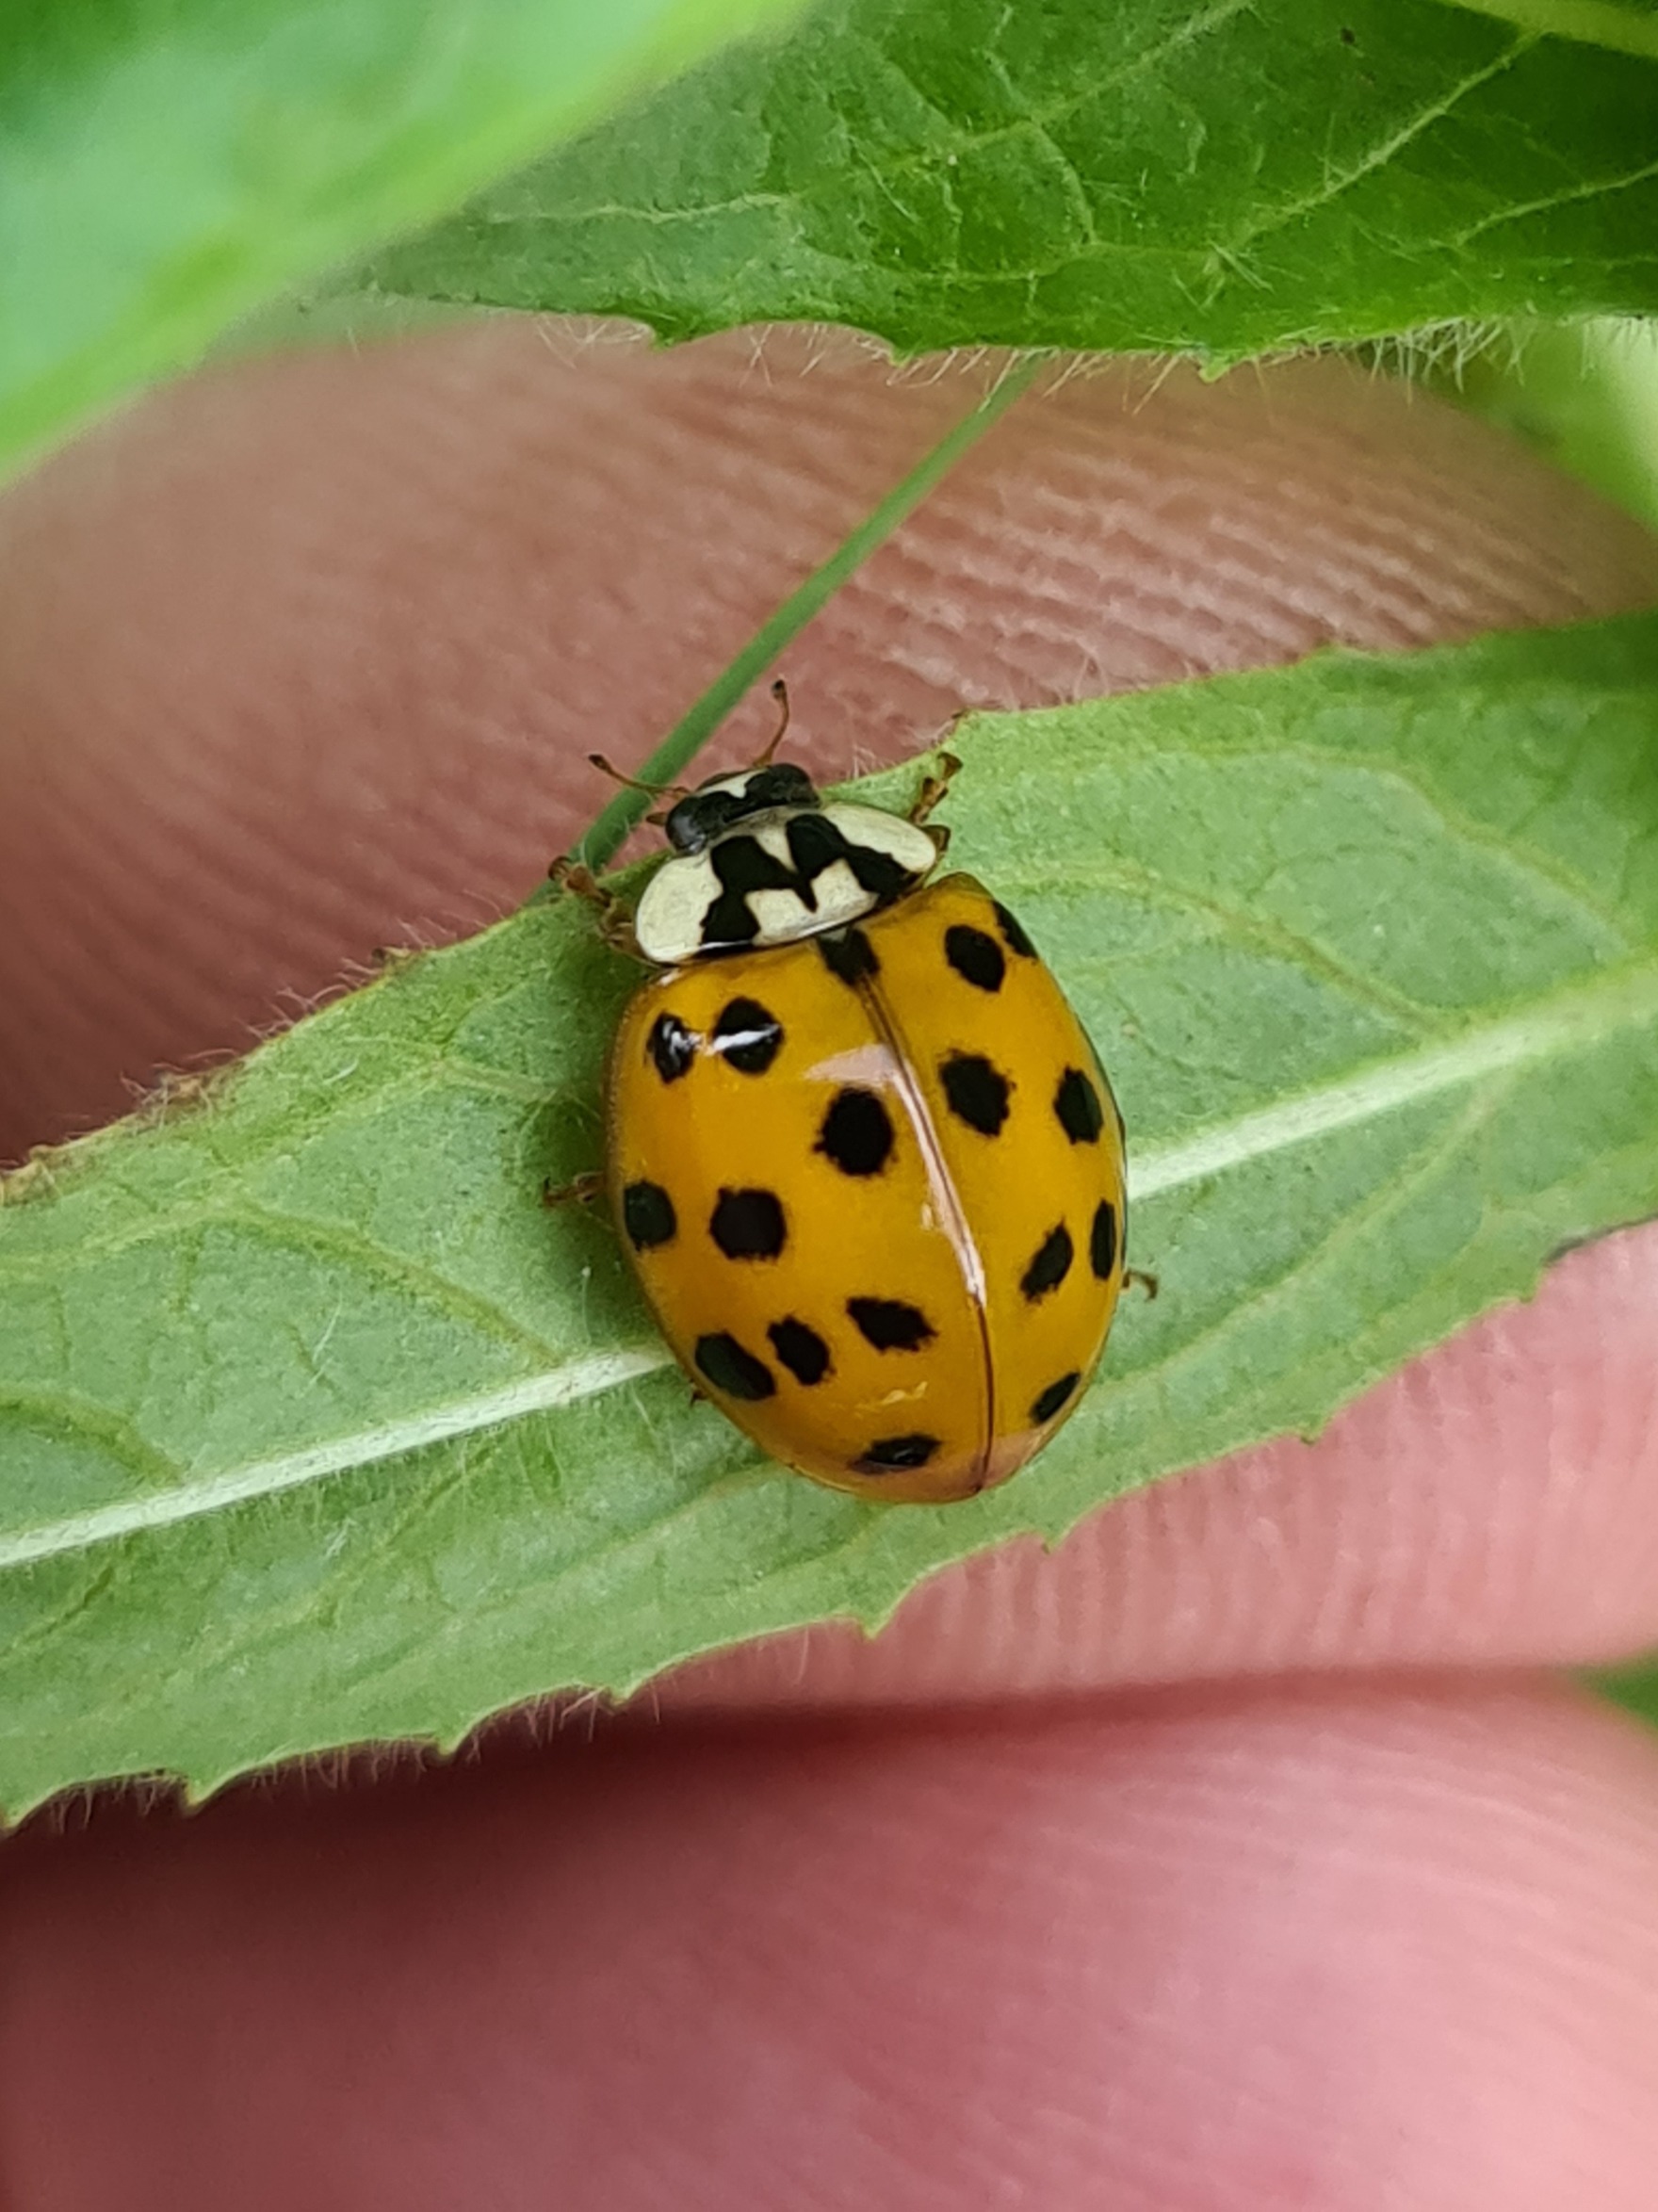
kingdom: Animalia
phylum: Arthropoda
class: Insecta
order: Coleoptera
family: Coccinellidae
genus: Harmonia
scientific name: Harmonia axyridis
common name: Harlekinmariehøne
